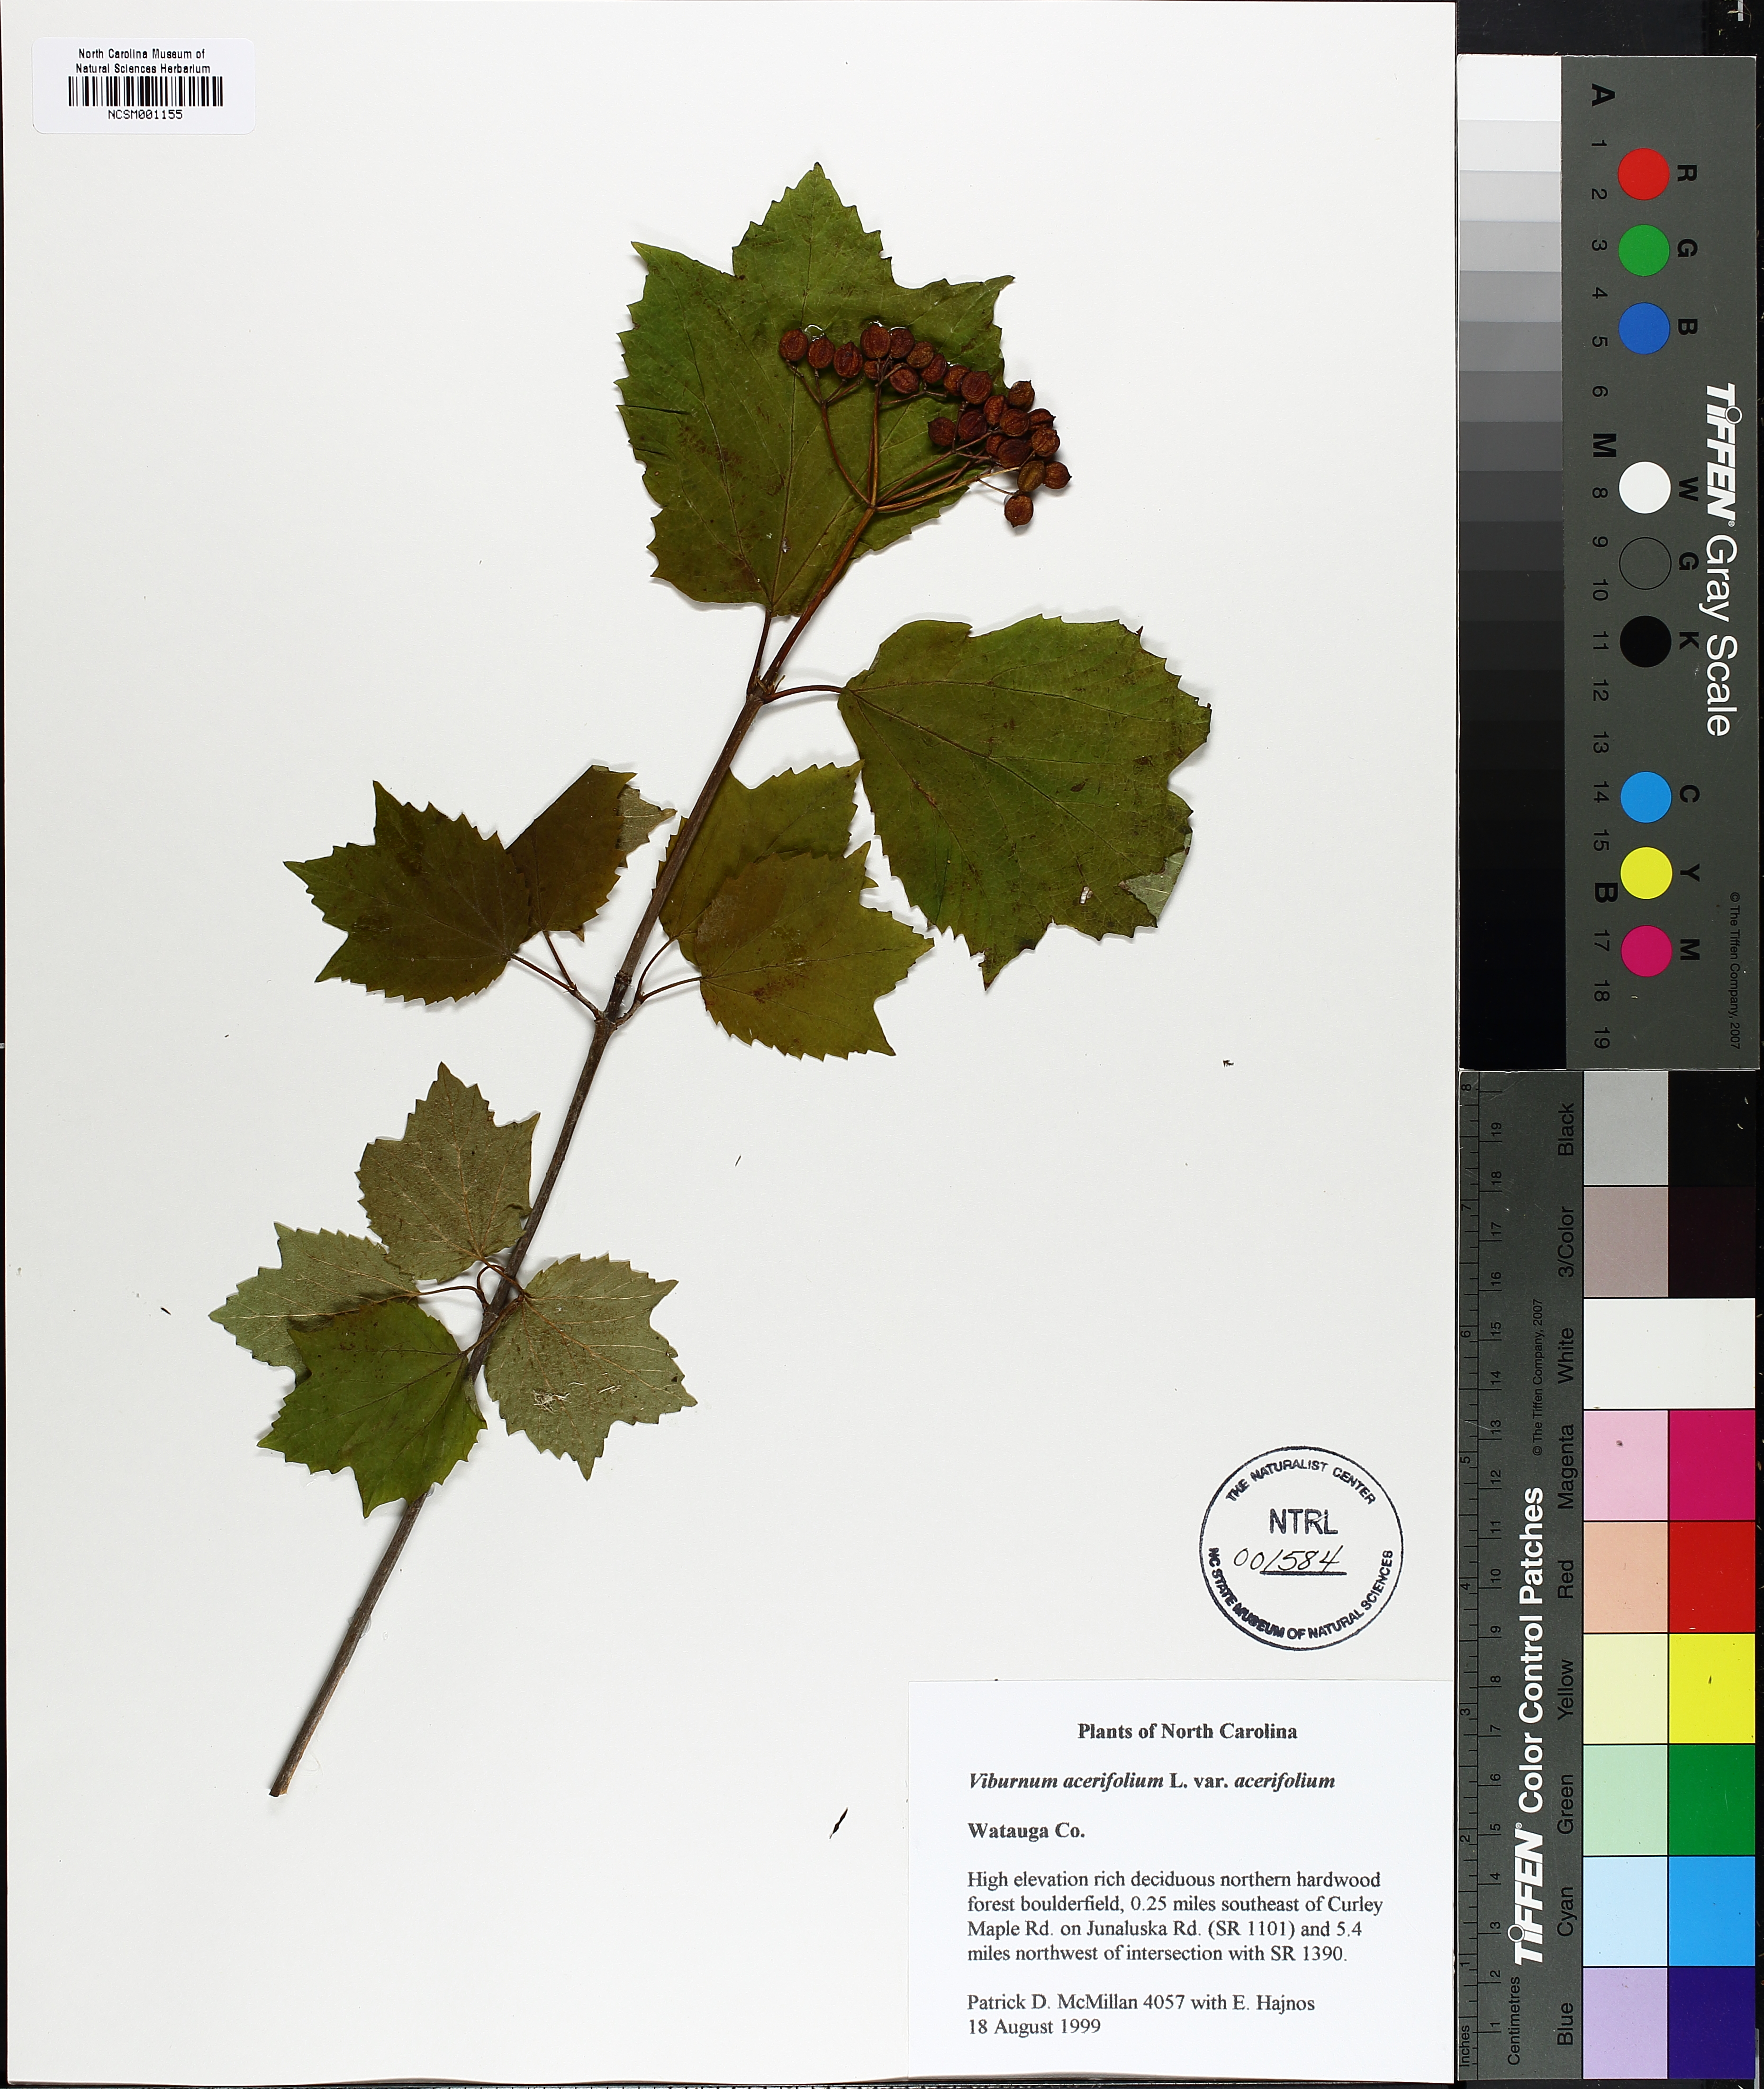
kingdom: Plantae
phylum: Tracheophyta
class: Magnoliopsida
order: Dipsacales
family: Viburnaceae
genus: Viburnum
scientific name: Viburnum acerifolium
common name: Dockmackie
